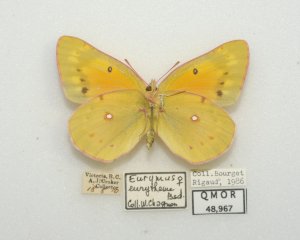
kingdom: Animalia
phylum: Arthropoda
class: Insecta
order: Lepidoptera
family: Pieridae
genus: Colias
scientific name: Colias eurytheme
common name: Orange Sulphur
